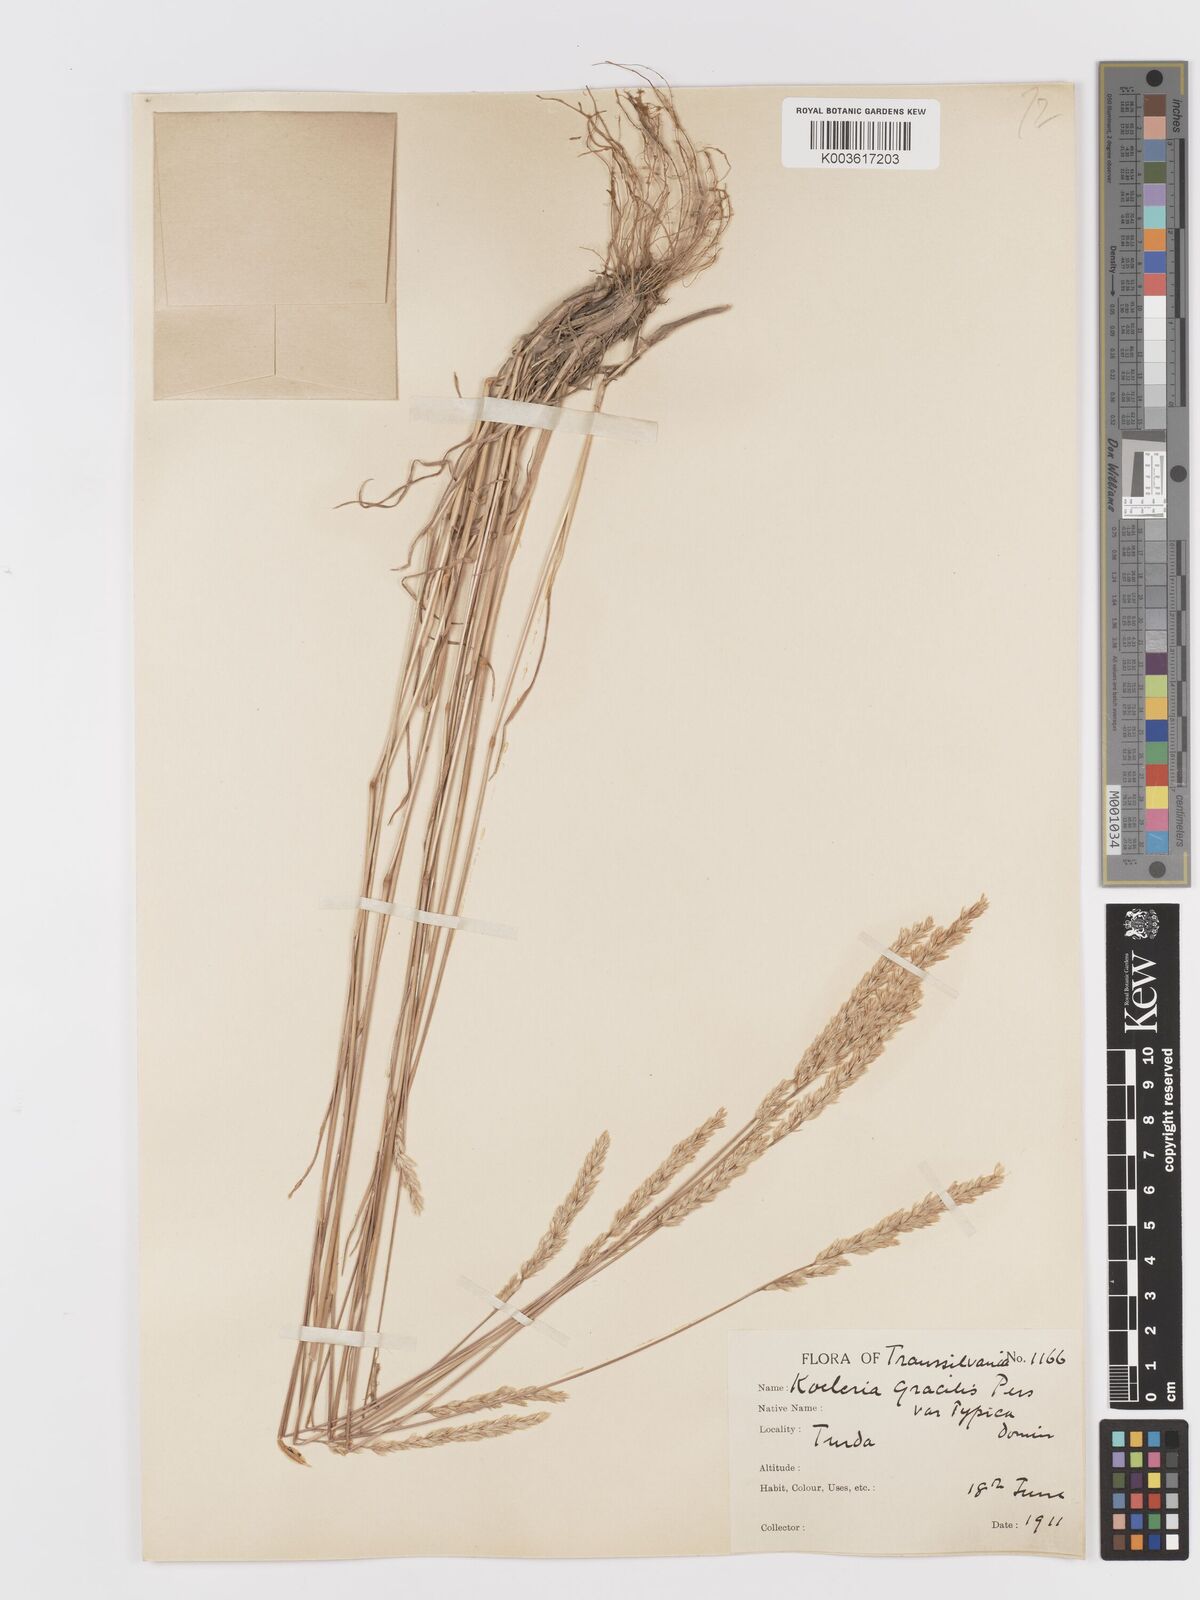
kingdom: Plantae
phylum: Tracheophyta
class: Liliopsida
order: Poales
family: Poaceae
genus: Koeleria
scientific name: Koeleria macrantha
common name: Crested hair-grass
